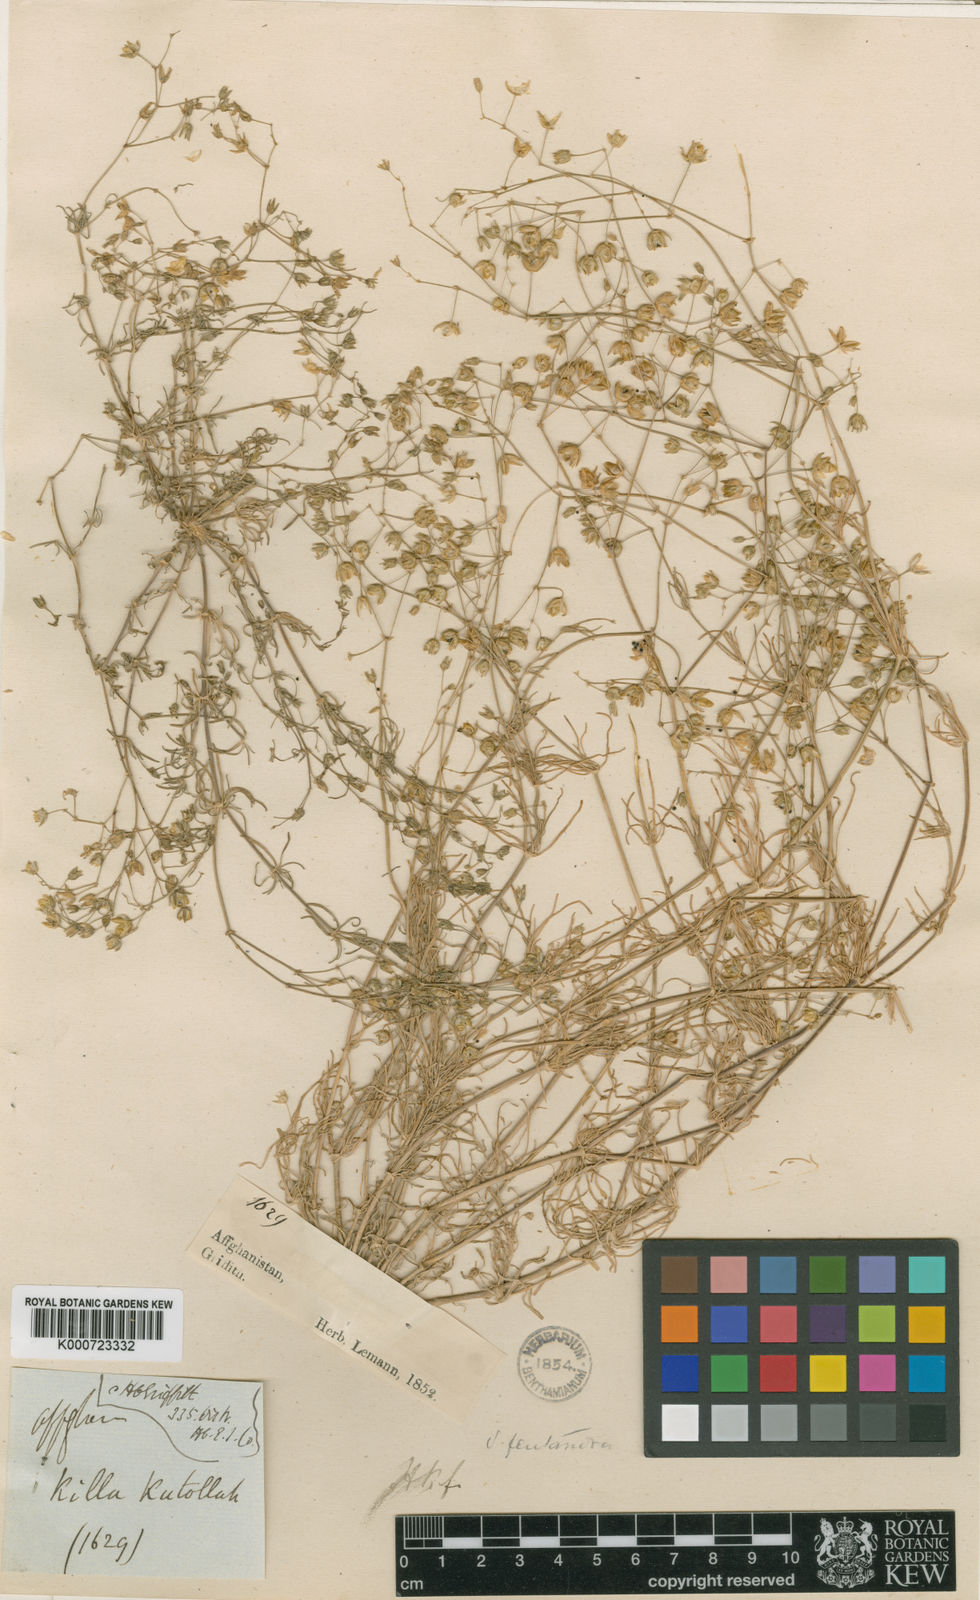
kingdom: Plantae
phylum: Tracheophyta
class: Magnoliopsida
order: Caryophyllales
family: Caryophyllaceae
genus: Spergularia
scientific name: Spergularia flaccida
